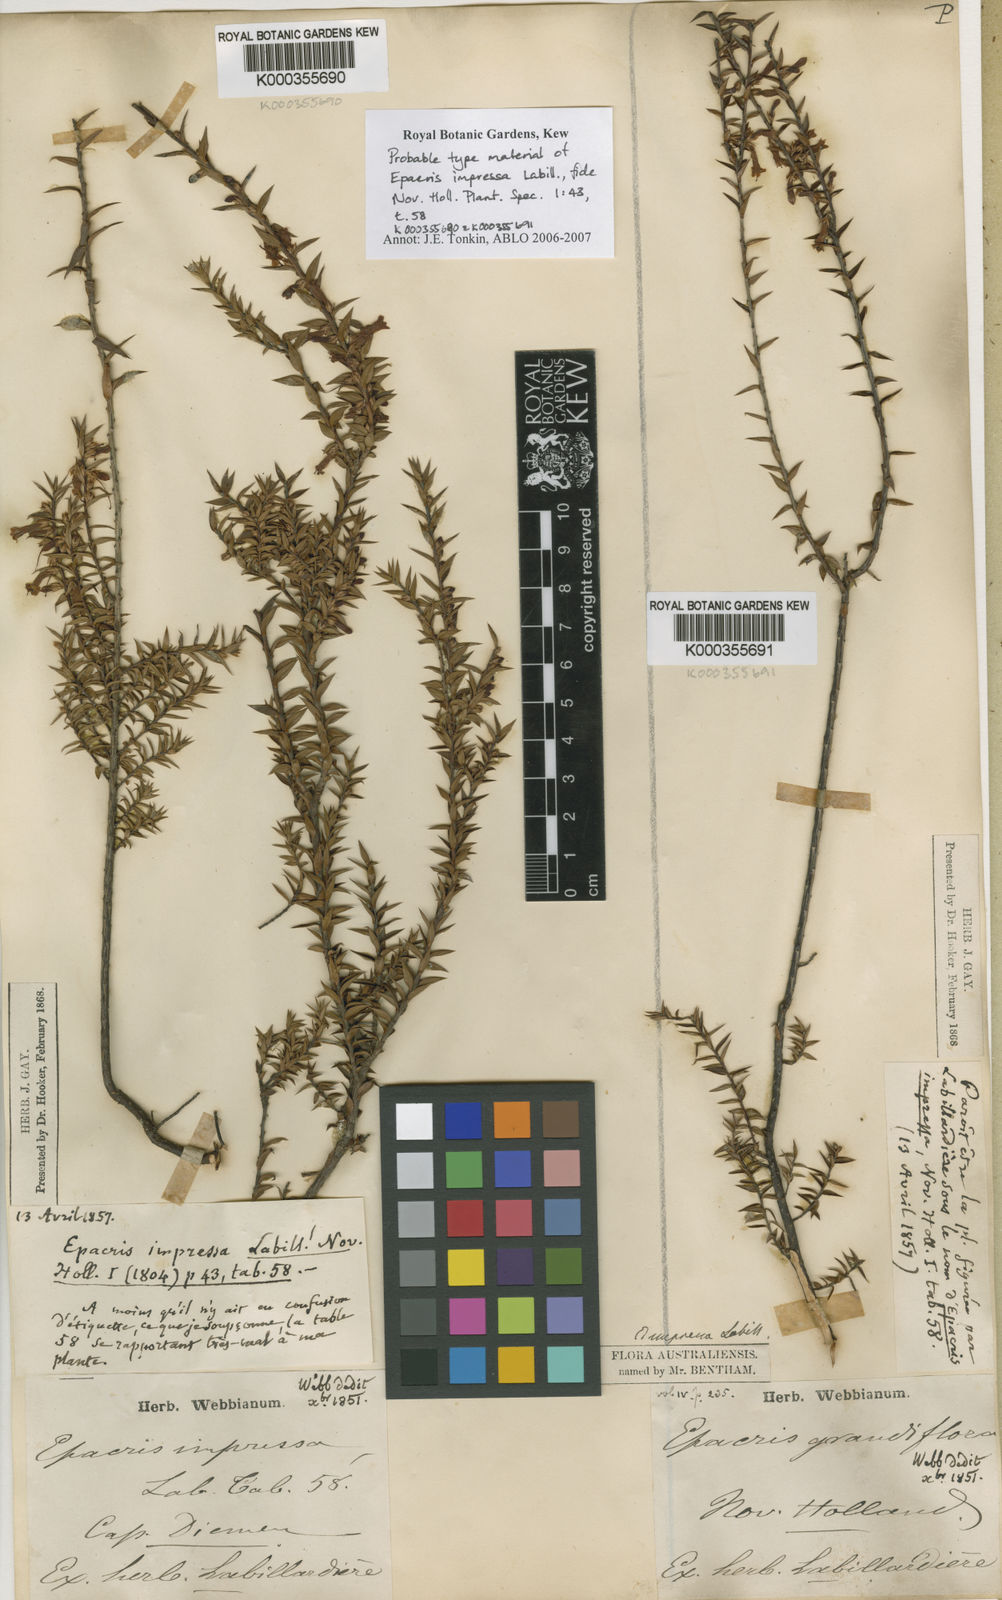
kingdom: Plantae
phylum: Tracheophyta
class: Magnoliopsida
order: Ericales
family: Ericaceae
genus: Epacris
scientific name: Epacris impressa
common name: Common-heath
